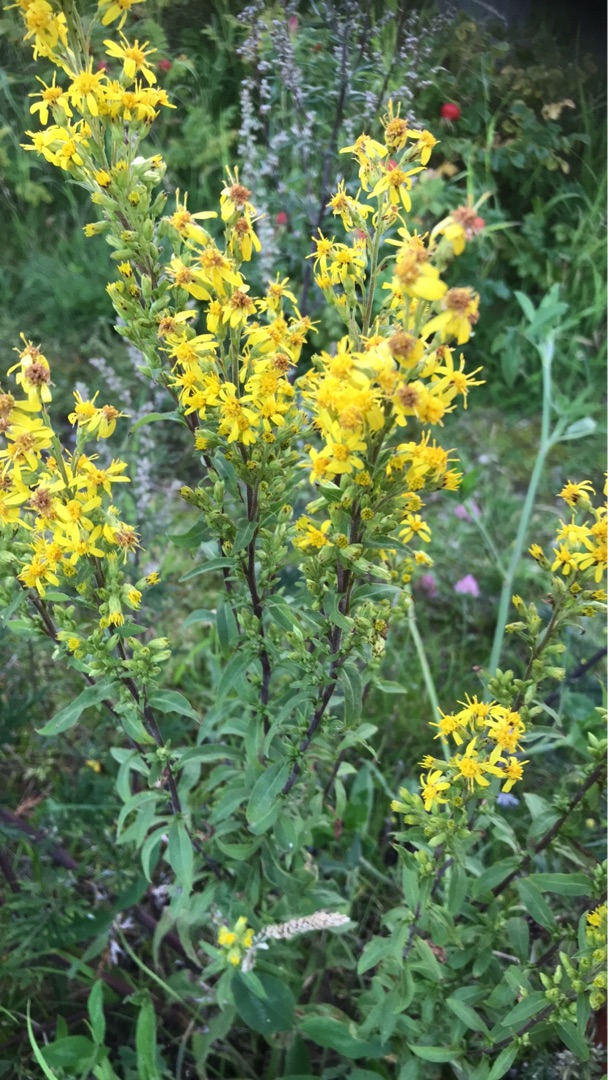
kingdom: Plantae
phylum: Tracheophyta
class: Magnoliopsida
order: Asterales
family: Asteraceae
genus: Solidago
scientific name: Solidago virgaurea
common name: Almindelig gyldenris
